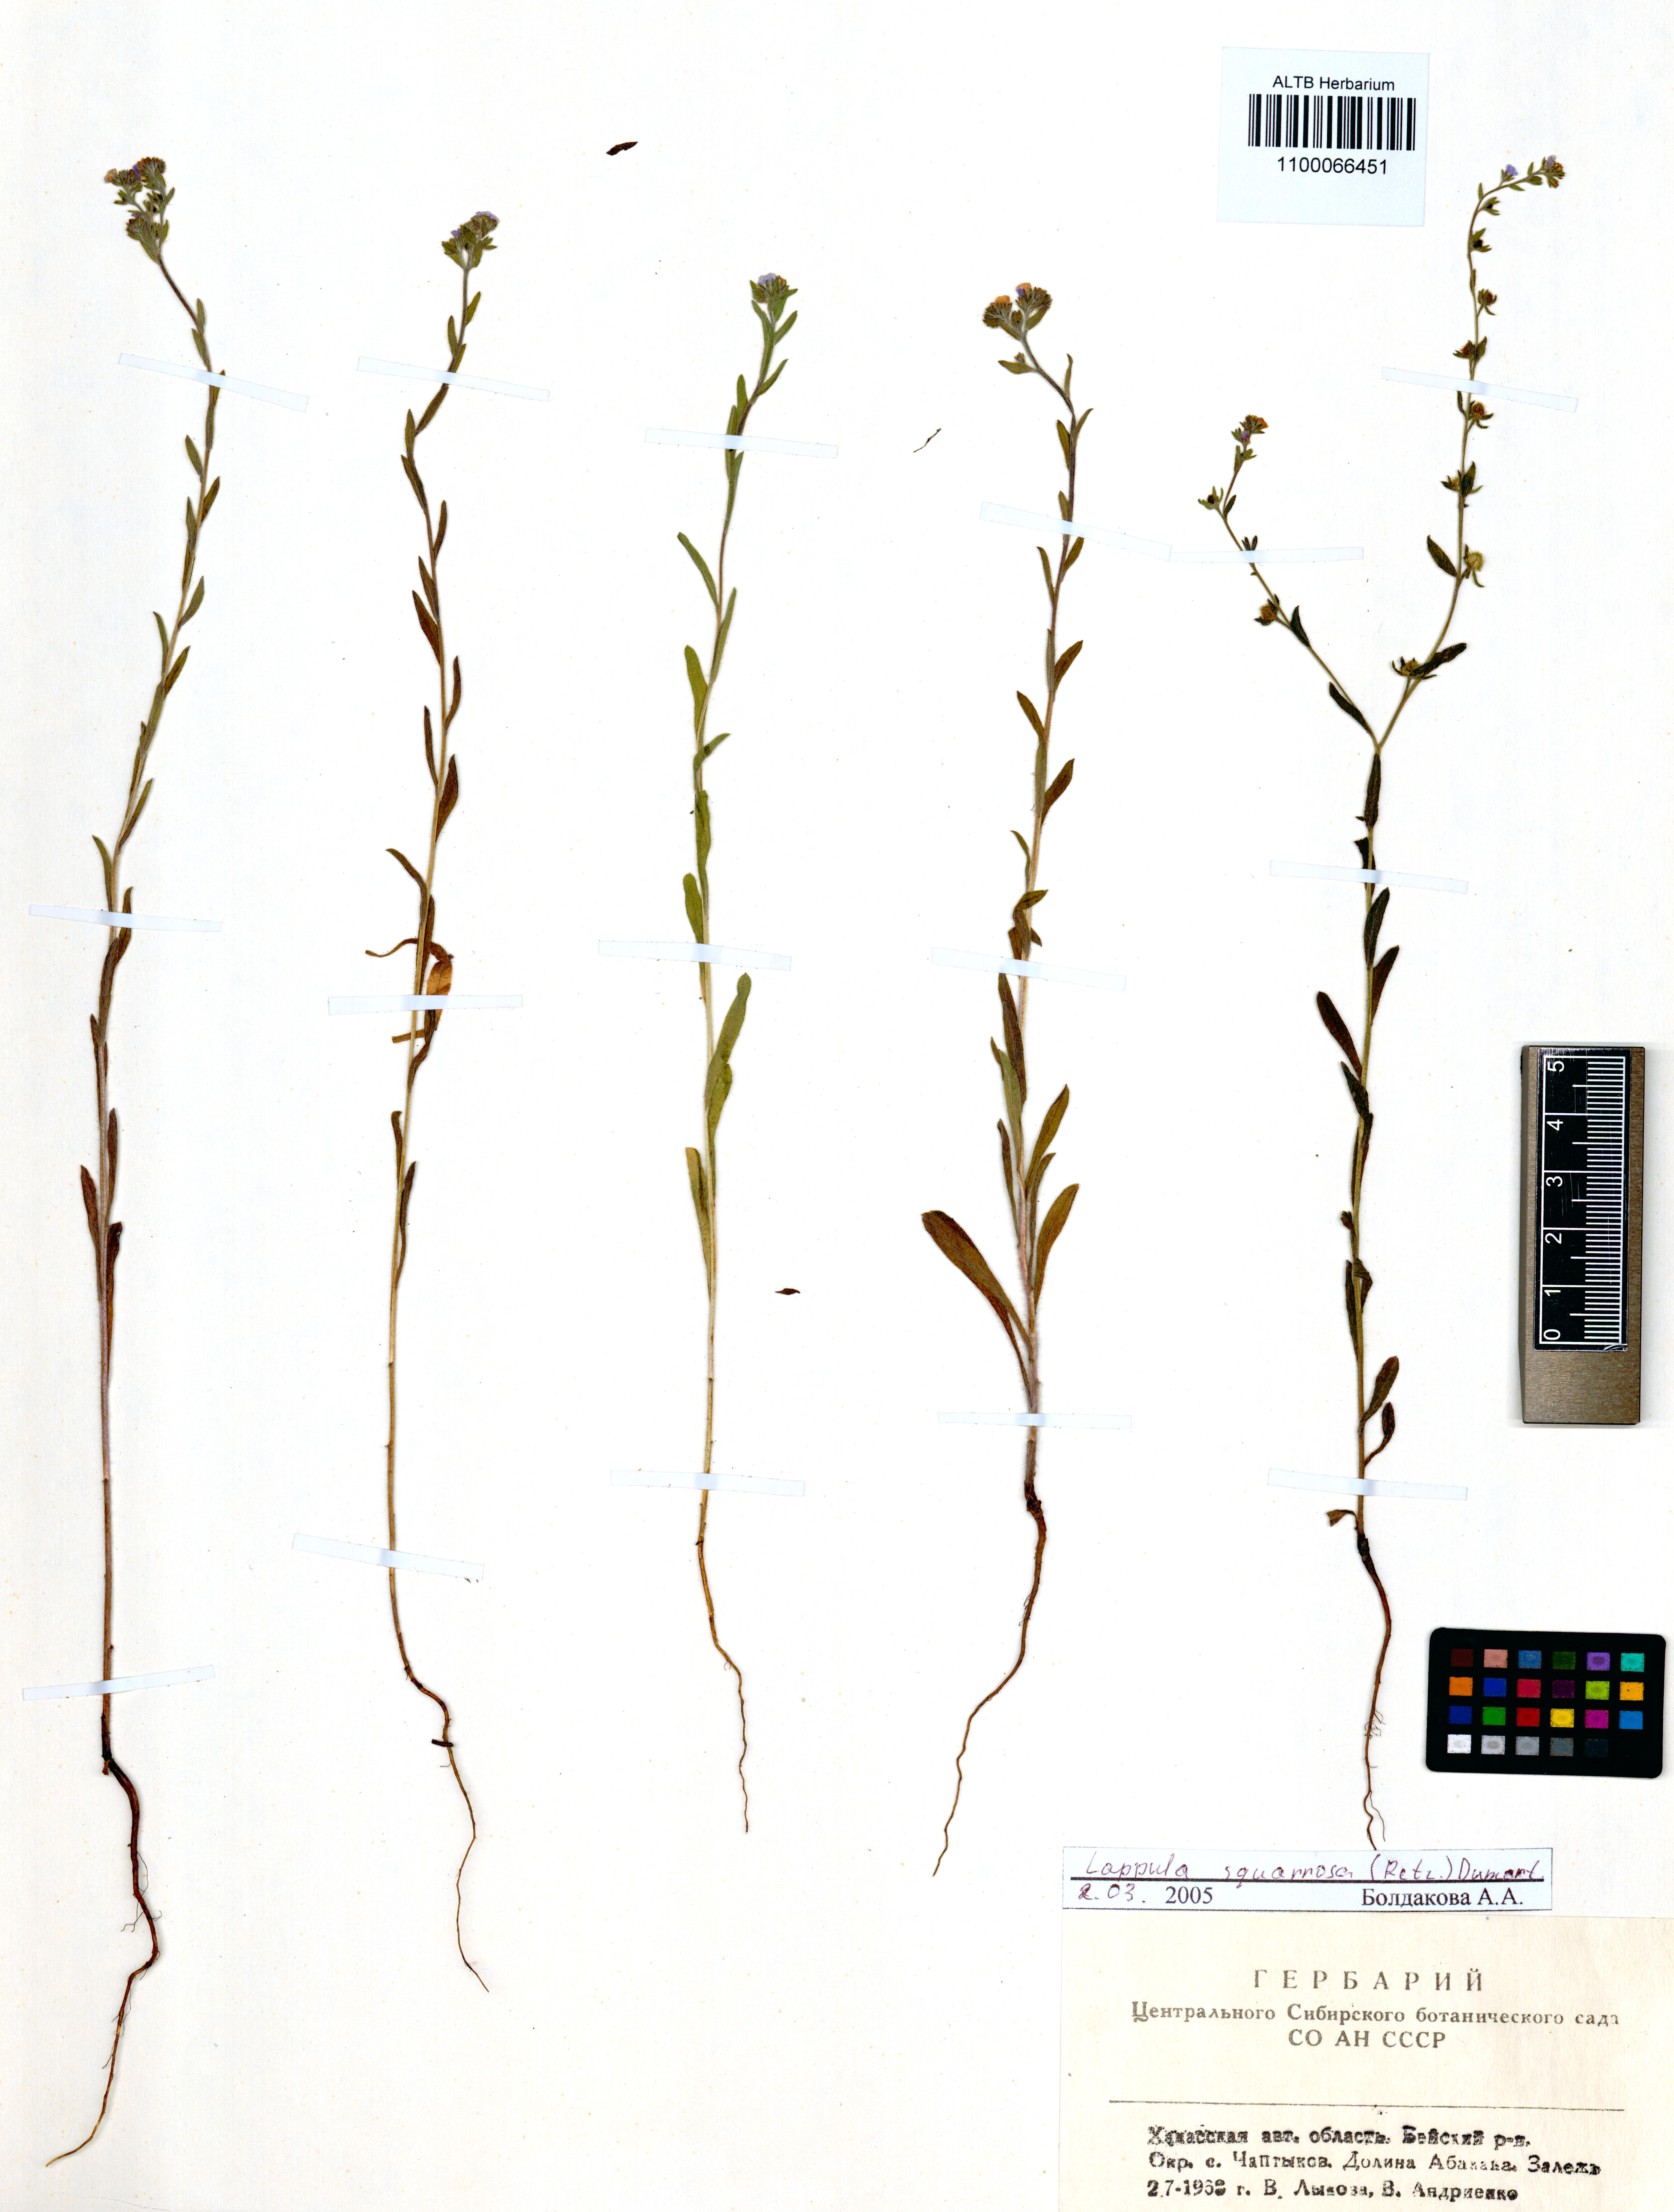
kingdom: Plantae
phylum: Tracheophyta
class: Magnoliopsida
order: Boraginales
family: Boraginaceae
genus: Lappula
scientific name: Lappula squarrosa
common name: European stickseed
